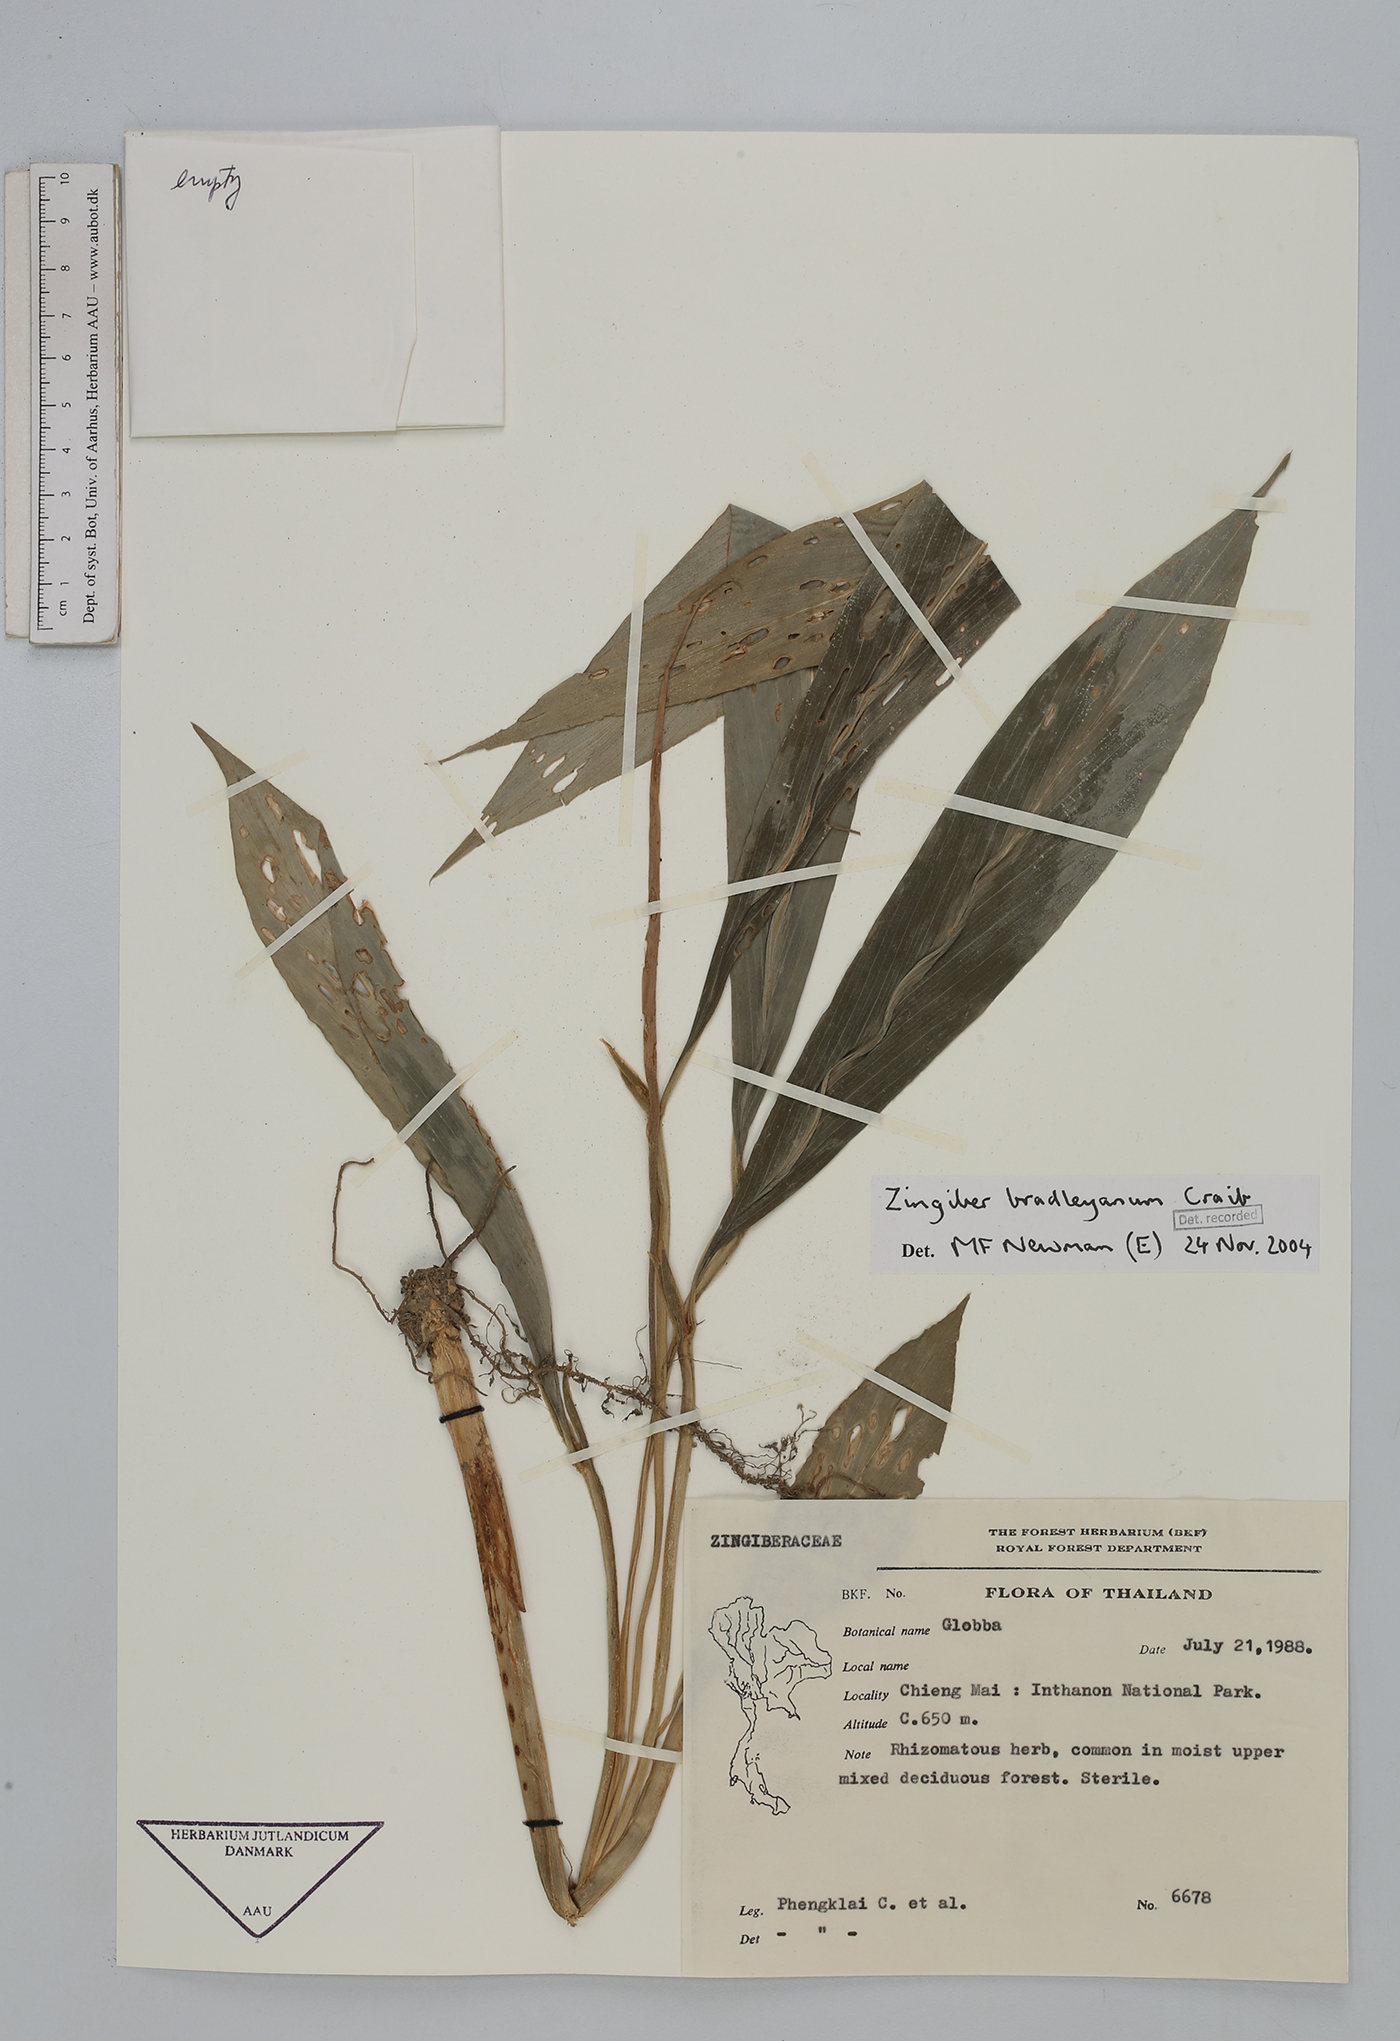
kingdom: Plantae
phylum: Tracheophyta
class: Liliopsida
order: Zingiberales
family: Zingiberaceae
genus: Zingiber
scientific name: Zingiber bradleyanum
